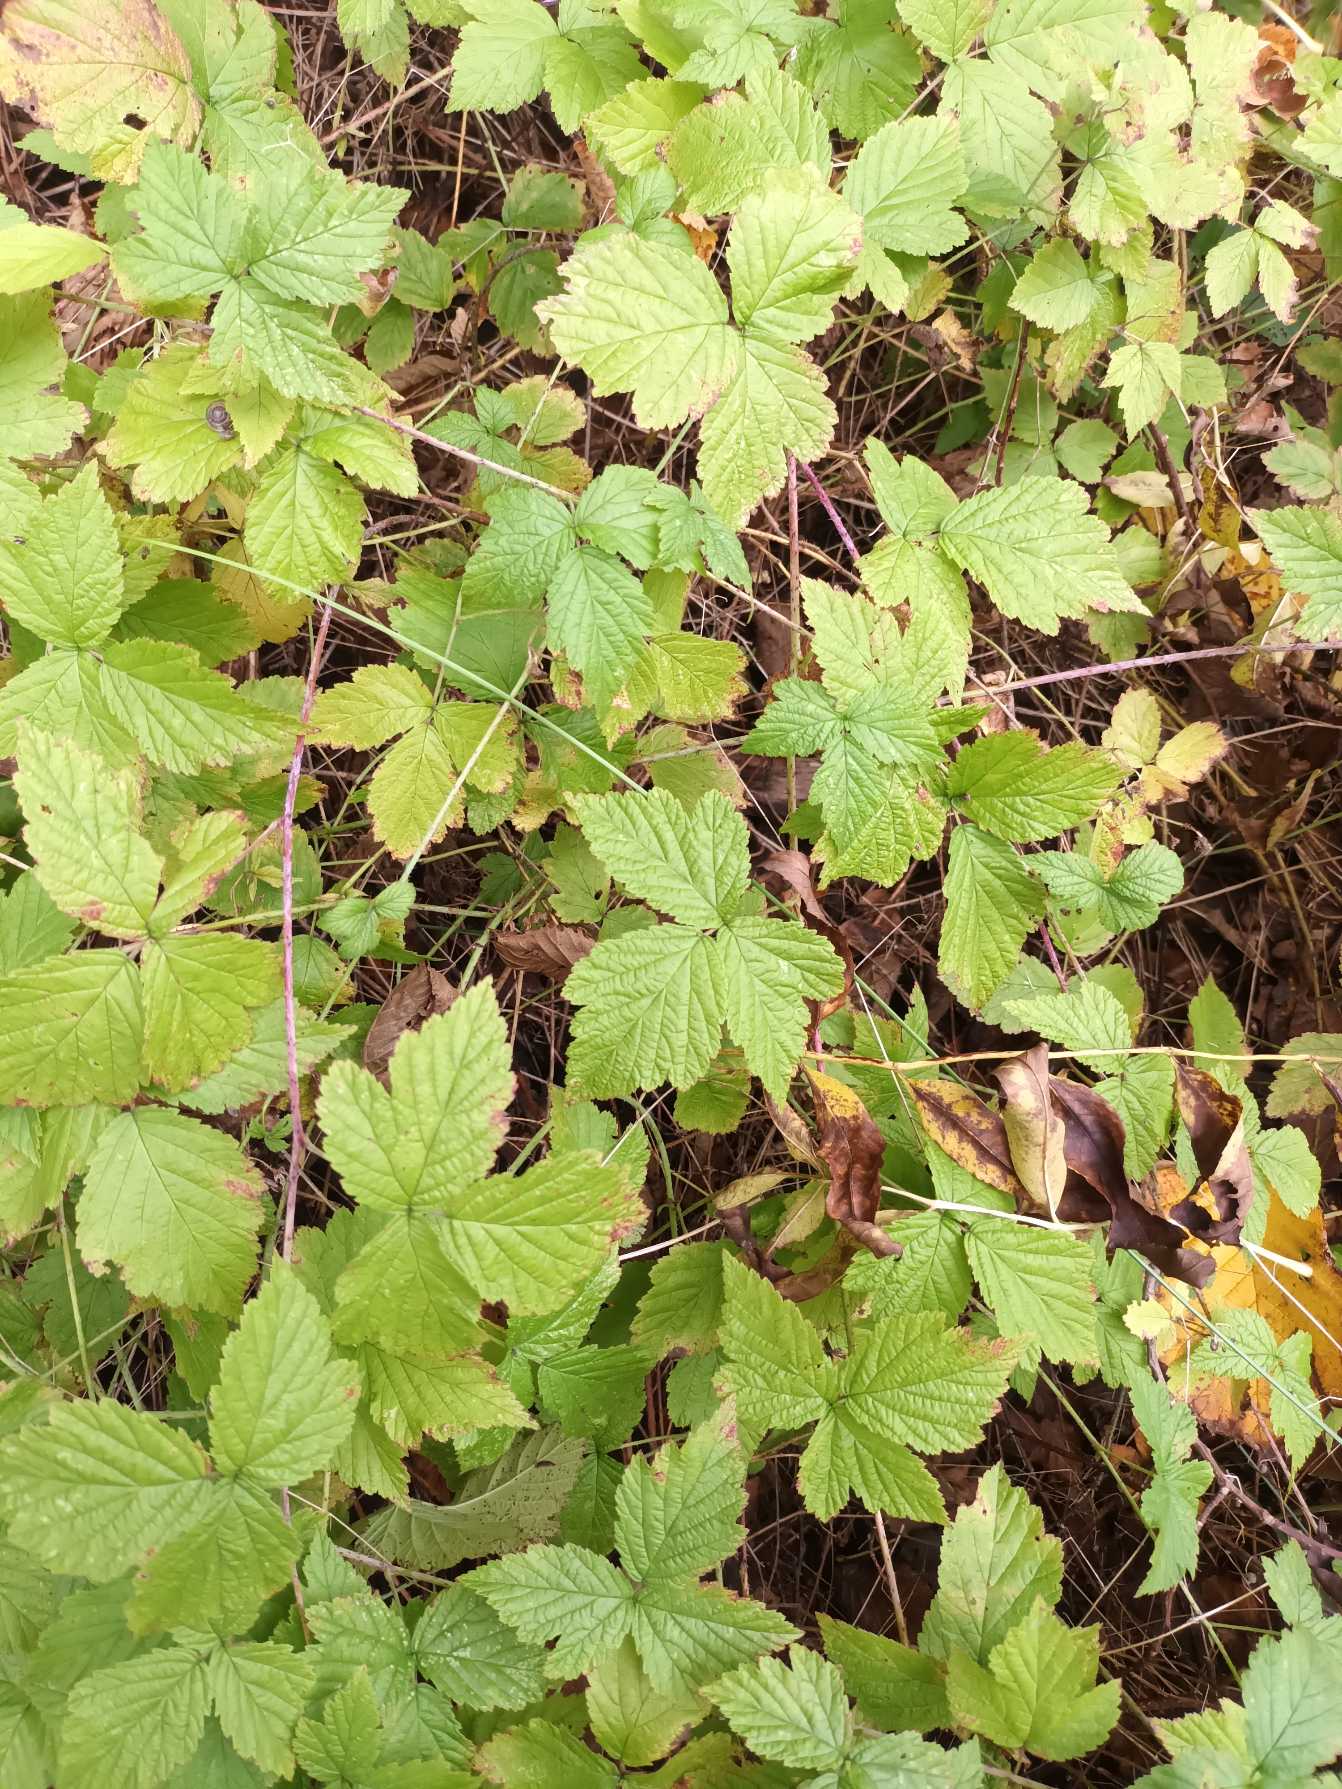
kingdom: Plantae
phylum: Tracheophyta
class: Magnoliopsida
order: Rosales
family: Rosaceae
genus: Rubus
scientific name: Rubus caesius
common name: Korbær
